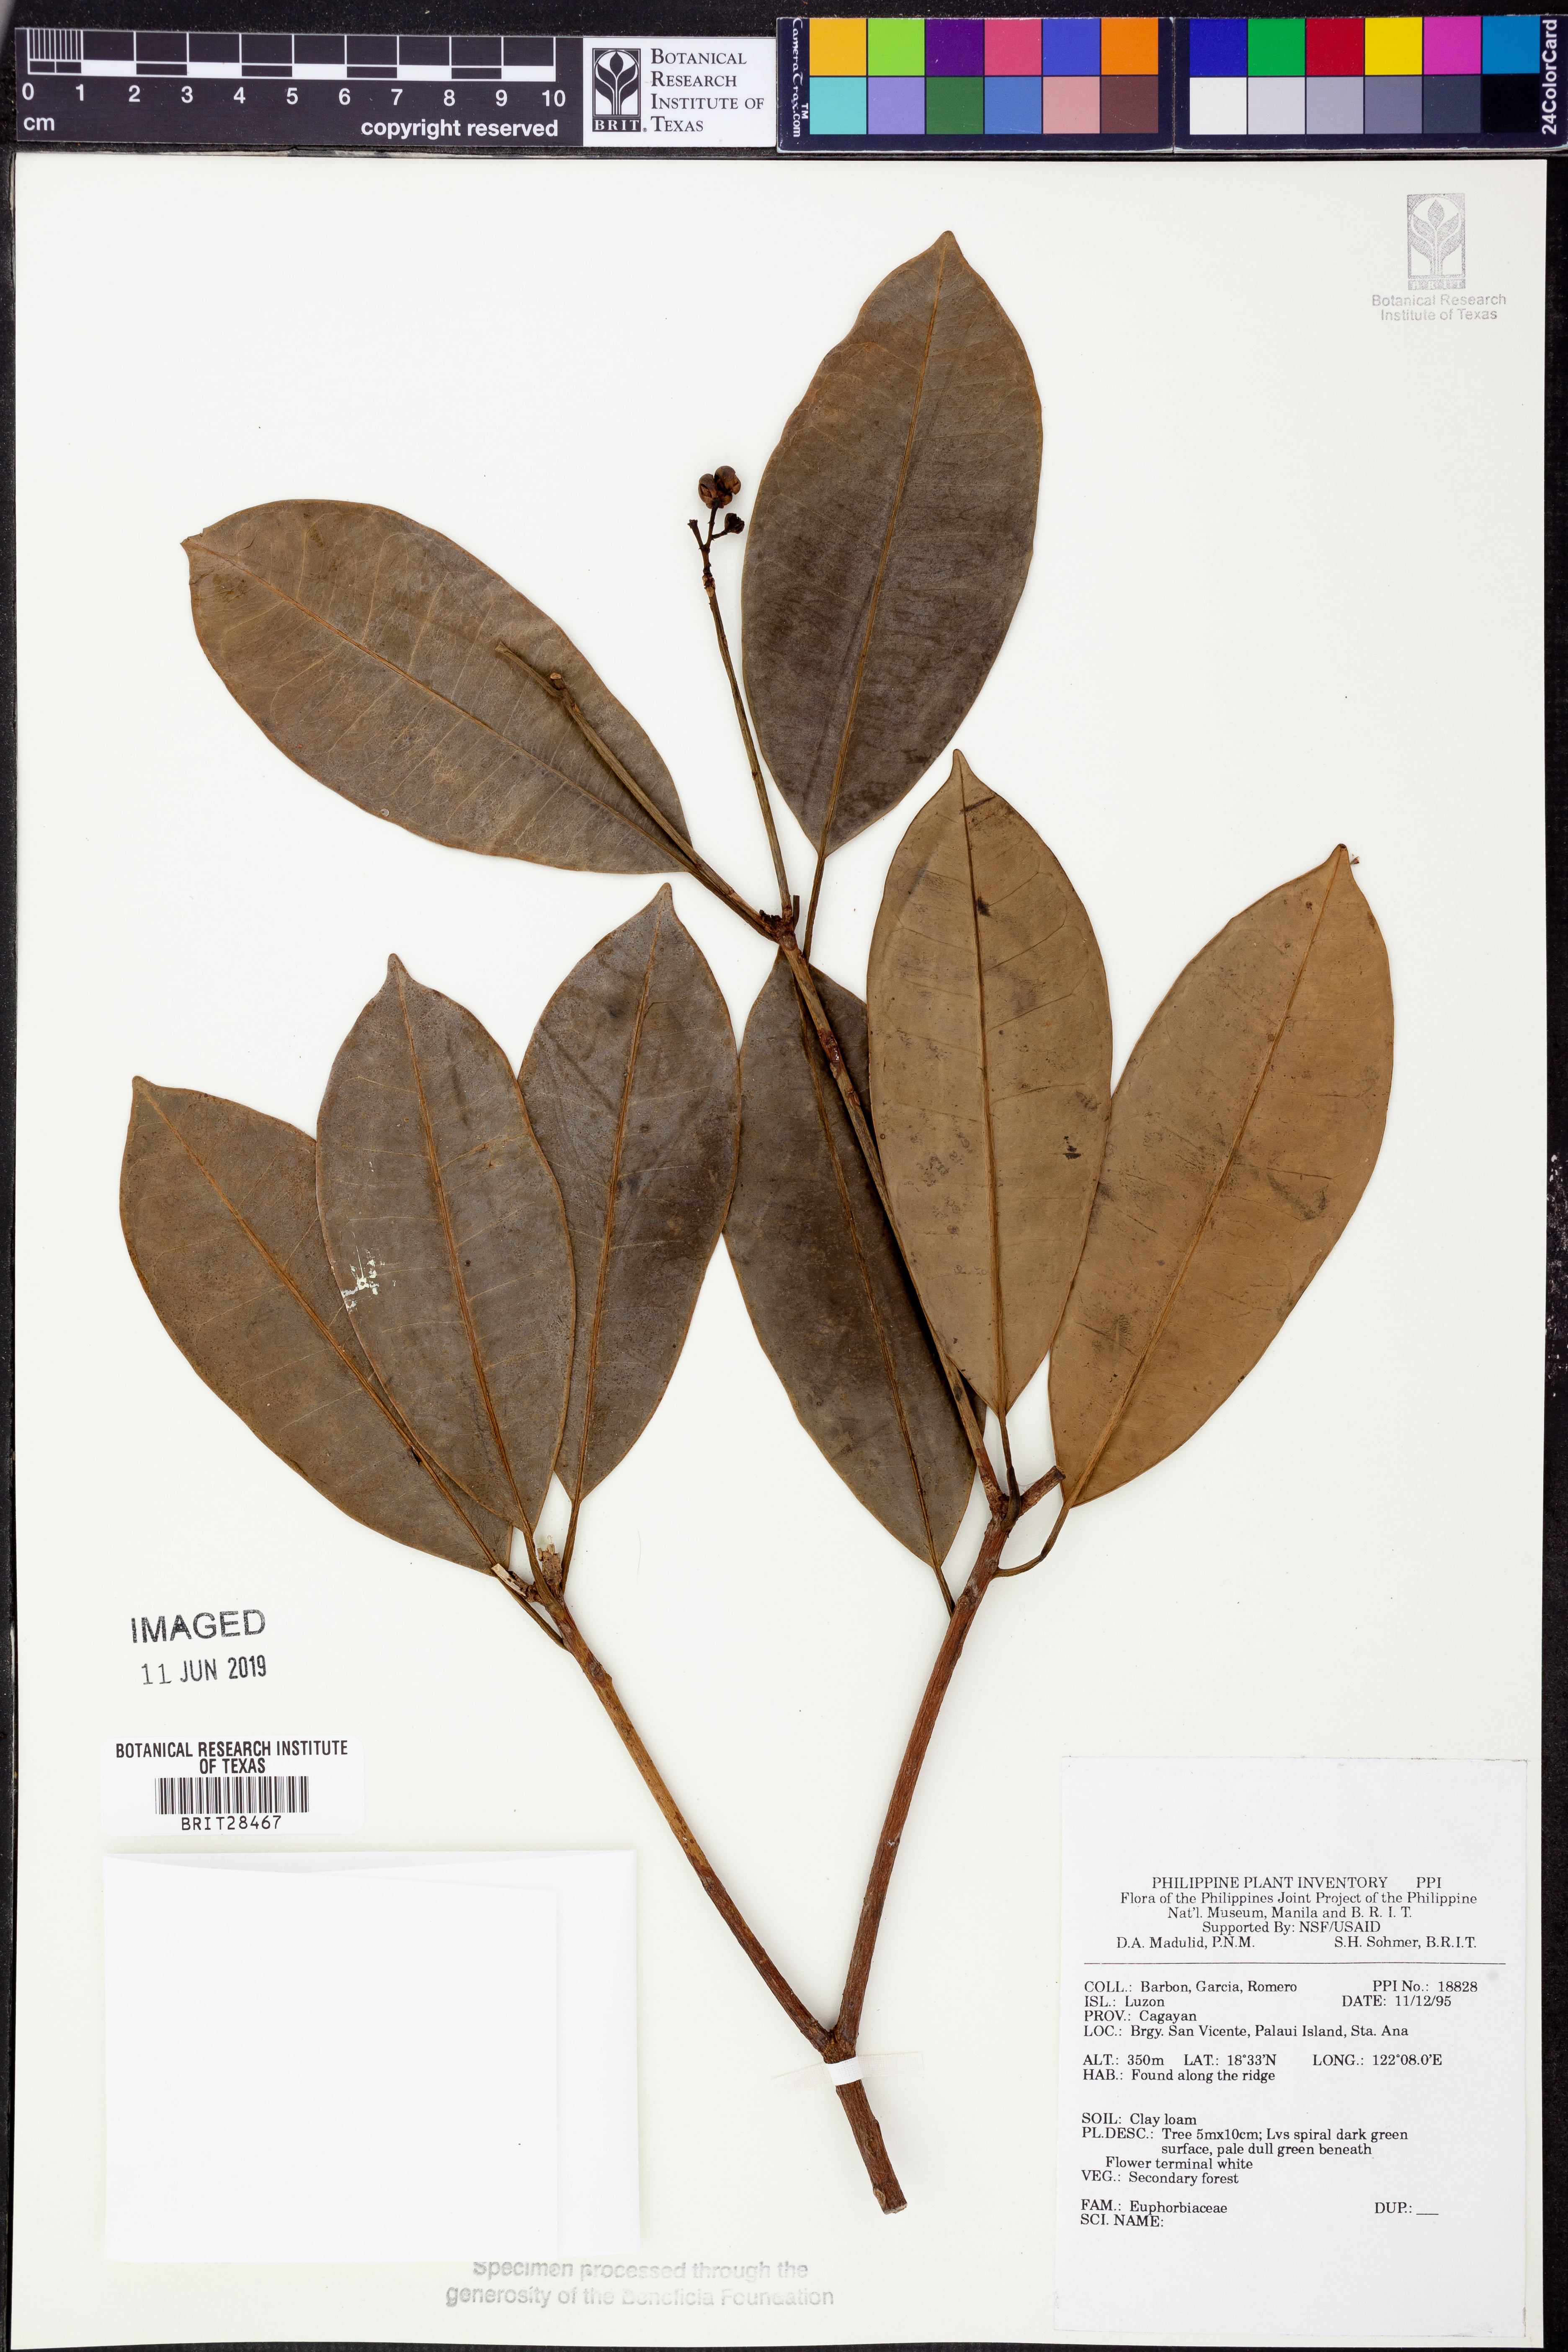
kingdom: Plantae
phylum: Tracheophyta
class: Magnoliopsida
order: Malpighiales
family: Euphorbiaceae
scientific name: Euphorbiaceae
